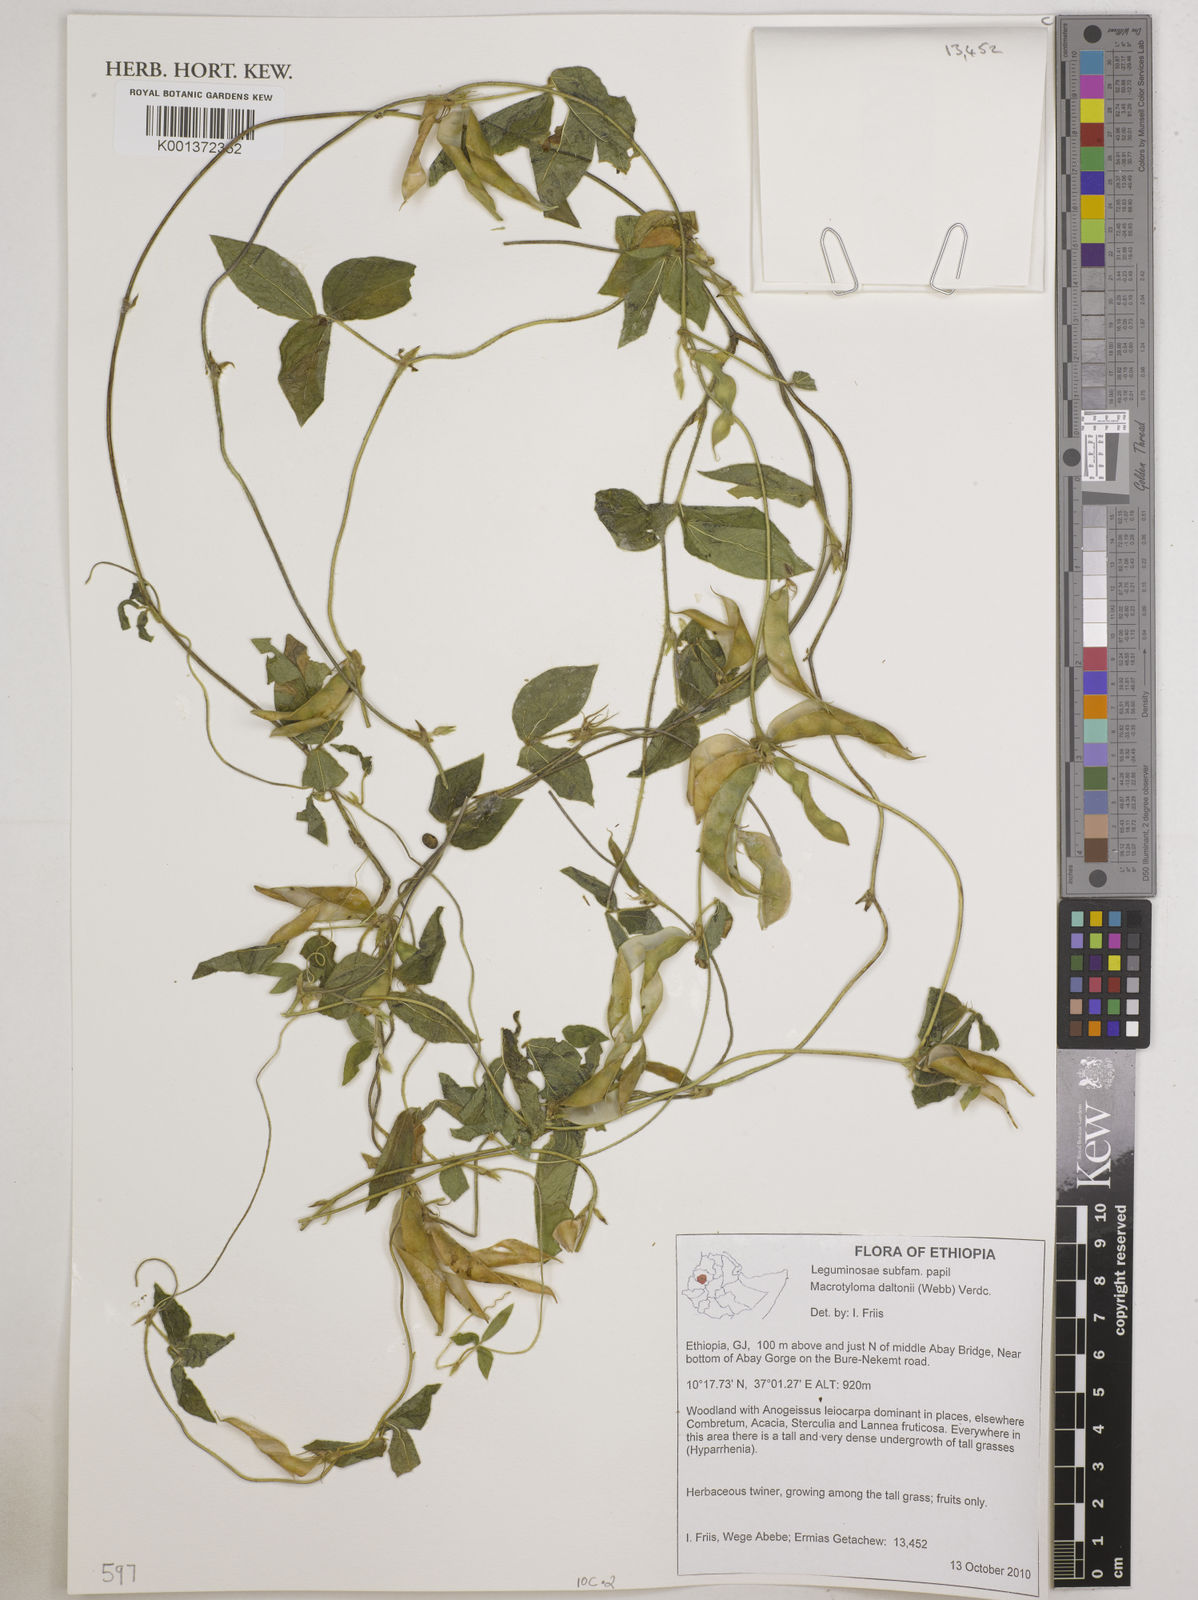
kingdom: Plantae
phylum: Tracheophyta
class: Magnoliopsida
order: Fabales
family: Fabaceae
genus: Macrotyloma
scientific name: Macrotyloma daltonii
